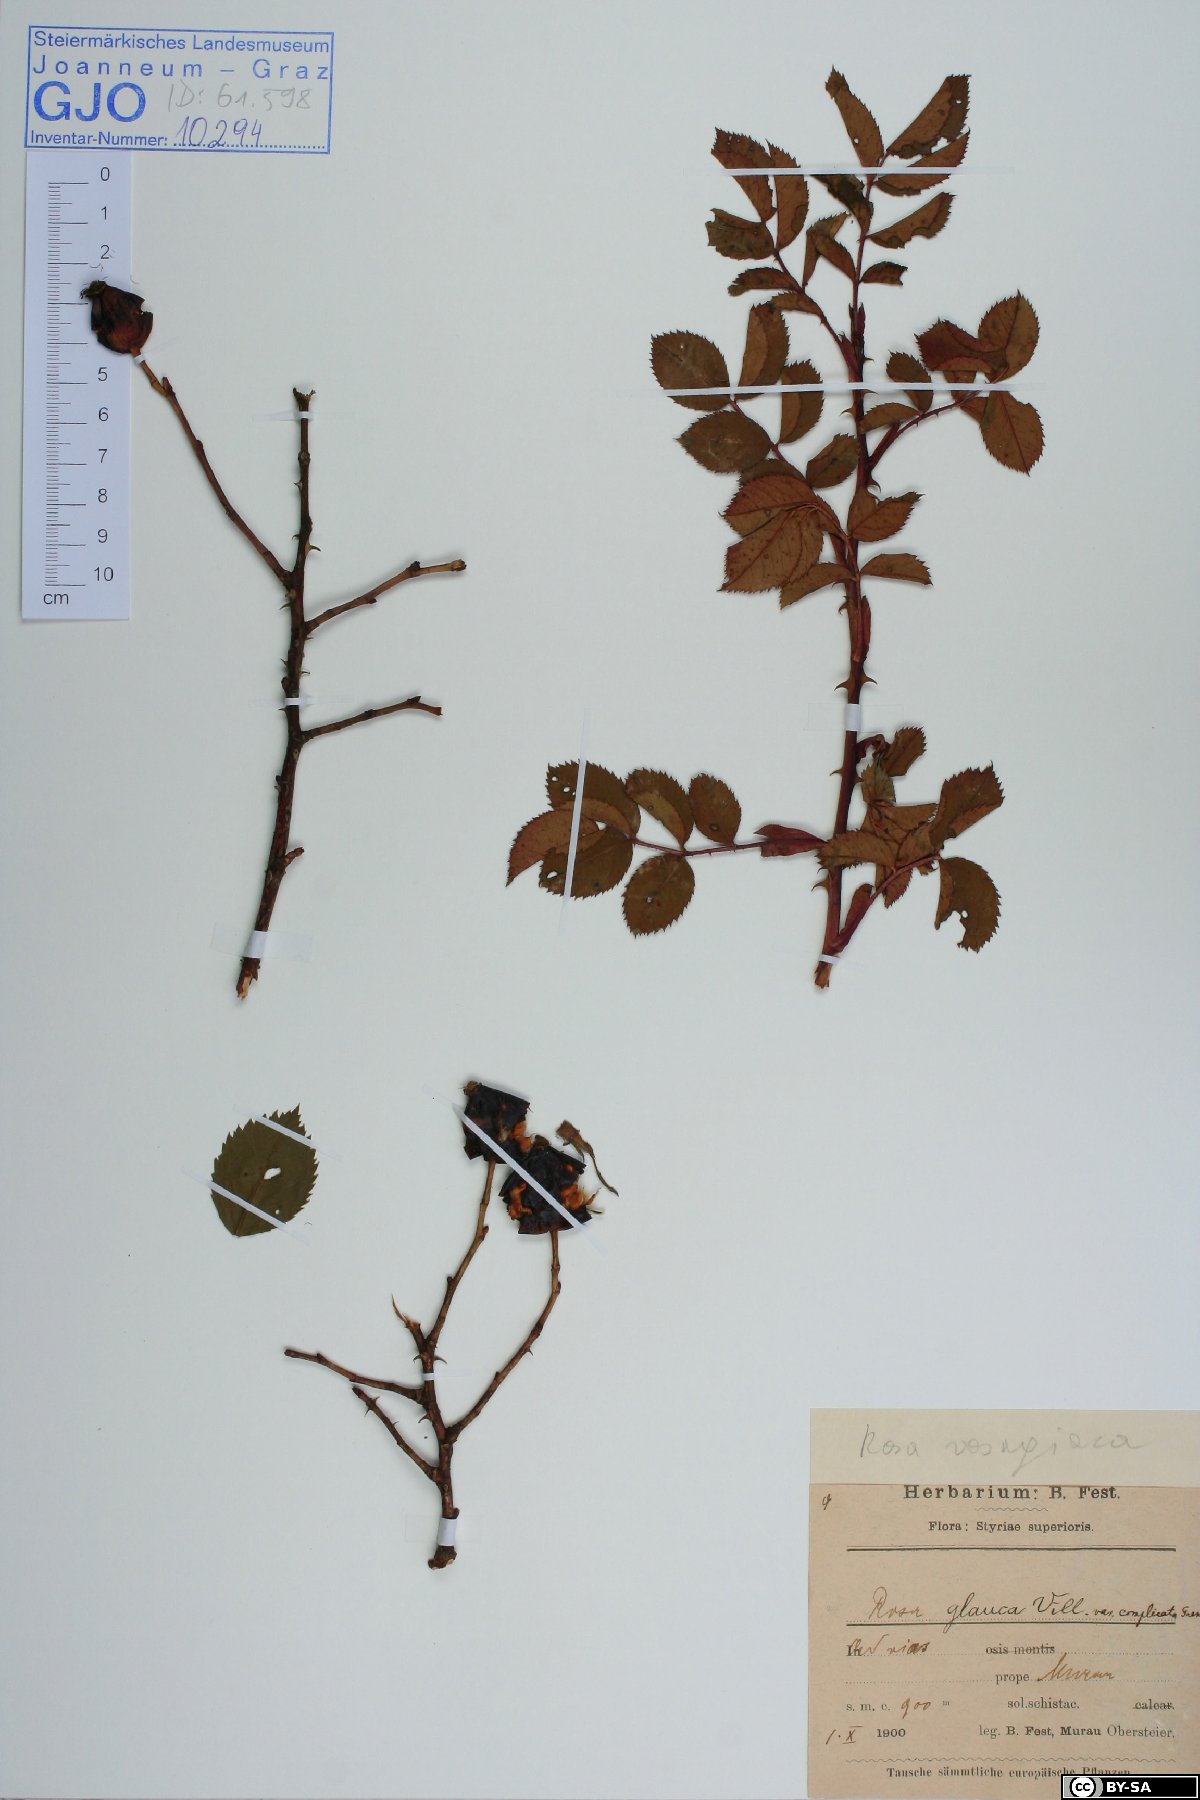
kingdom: Plantae
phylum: Tracheophyta
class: Magnoliopsida
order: Rosales
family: Rosaceae
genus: Rosa
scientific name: Rosa vosagiaca
